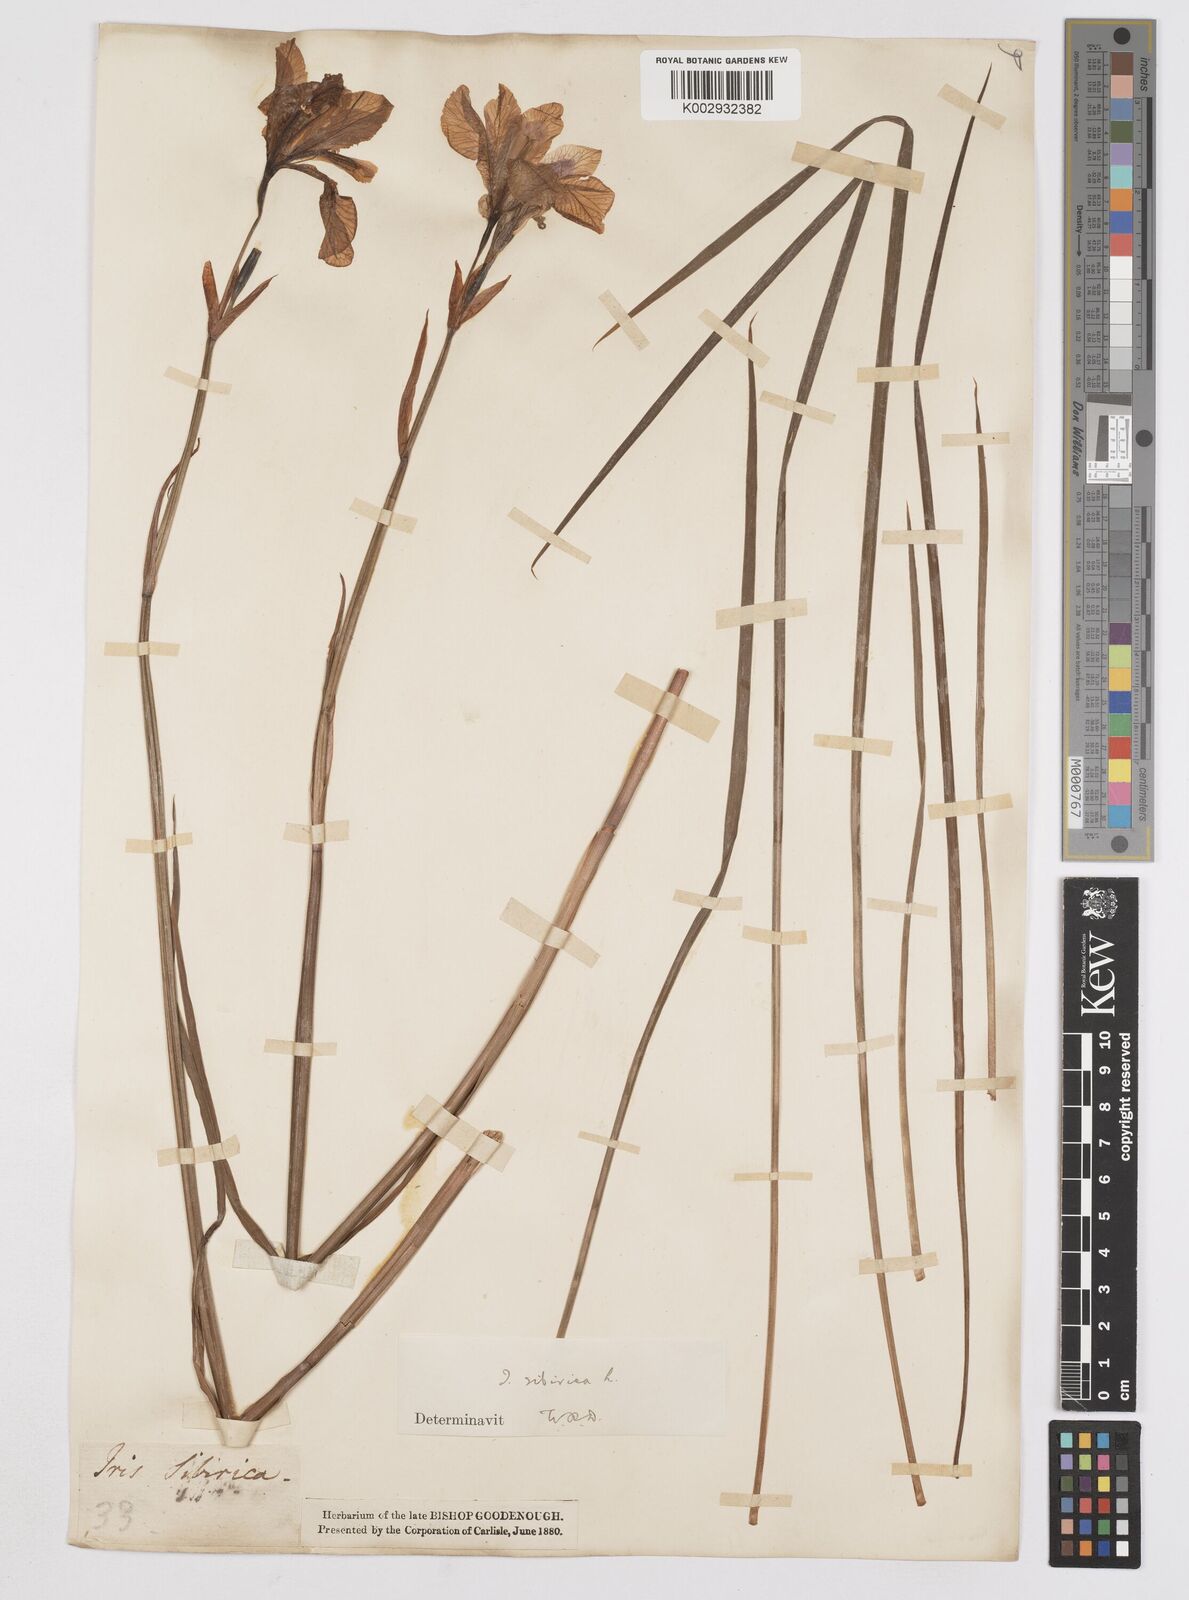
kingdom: Plantae
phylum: Tracheophyta
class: Liliopsida
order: Asparagales
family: Iridaceae
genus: Iris
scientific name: Iris sibirica
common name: Siberian iris
